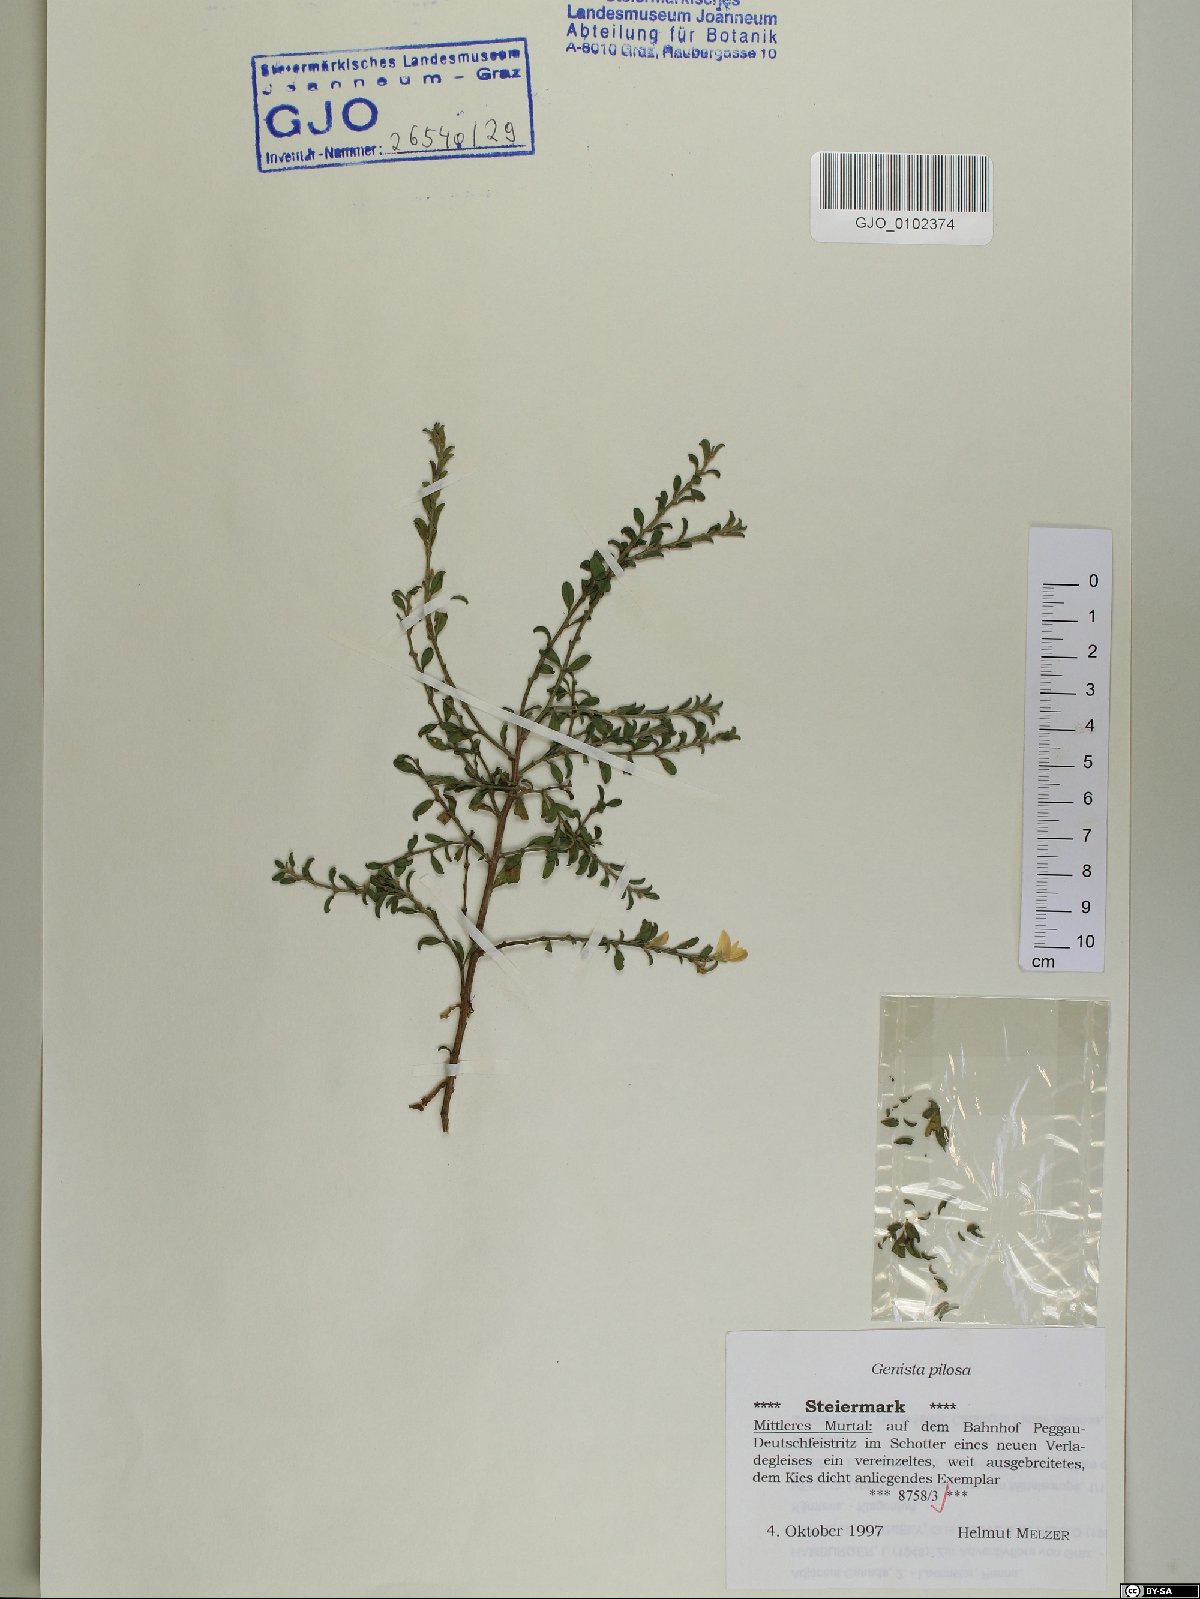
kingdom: Plantae
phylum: Tracheophyta
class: Magnoliopsida
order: Fabales
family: Fabaceae
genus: Genista
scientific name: Genista pilosa
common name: Hairy greenweed
